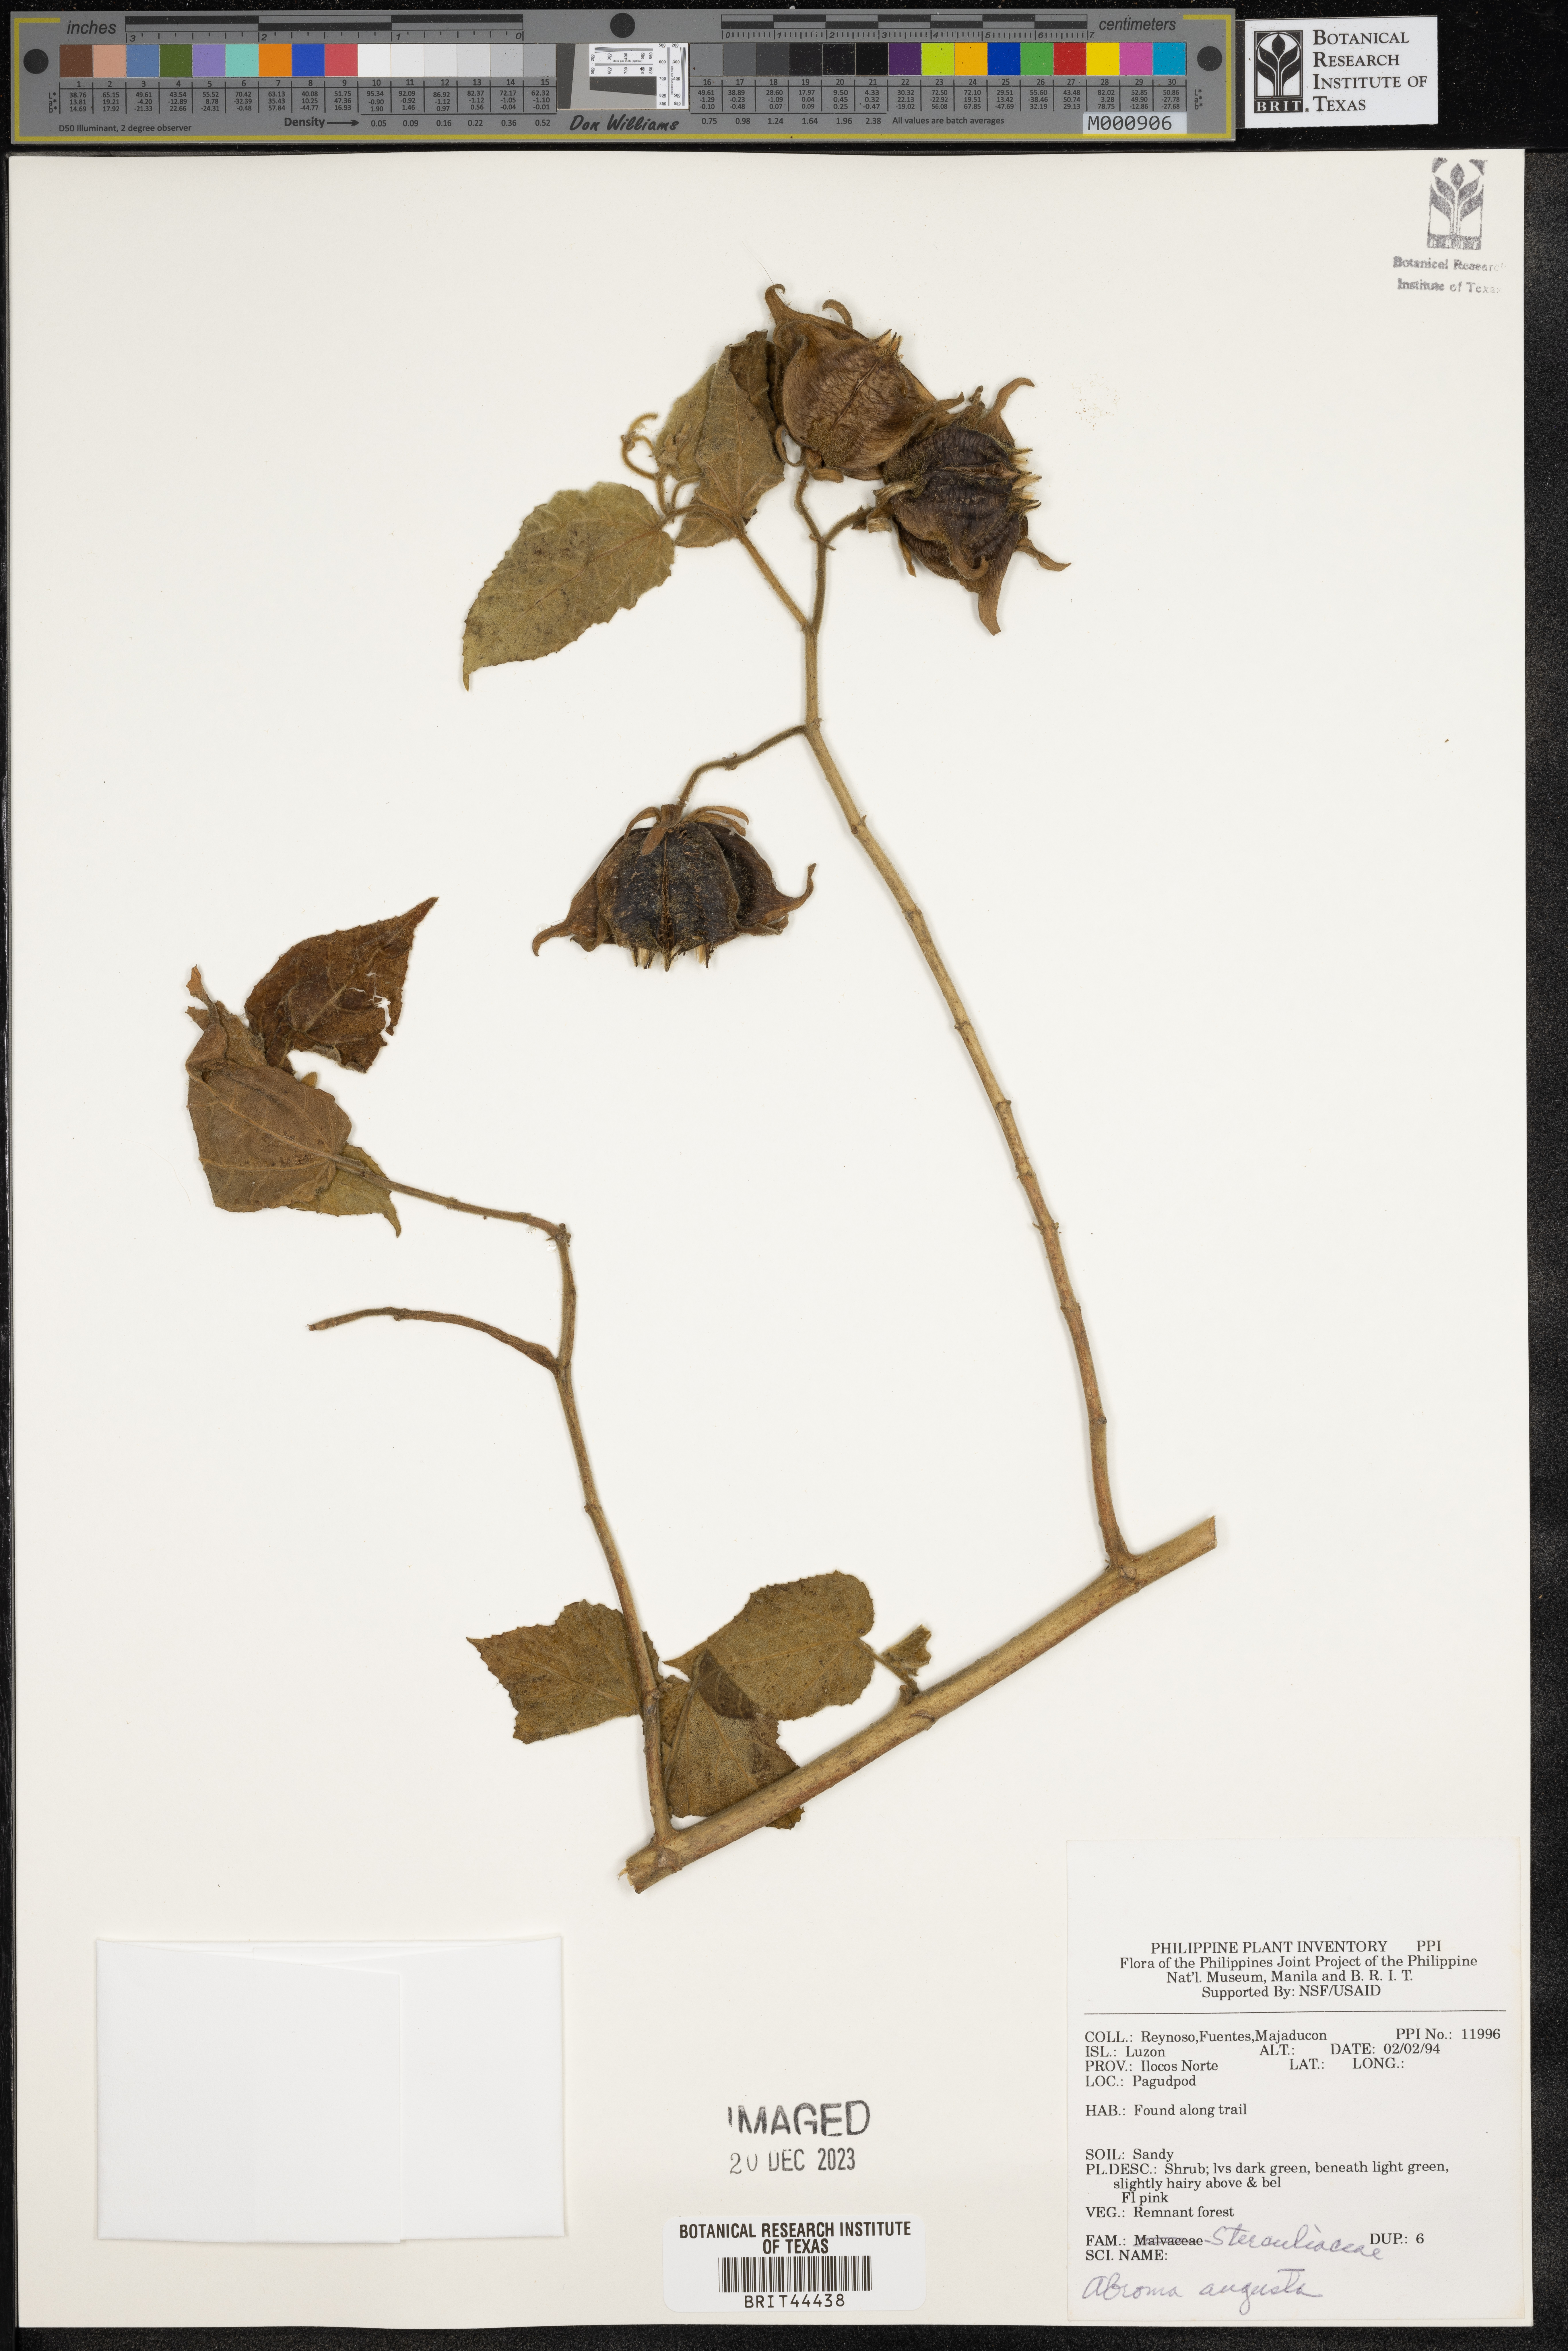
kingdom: Plantae
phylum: Tracheophyta
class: Magnoliopsida
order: Malvales
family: Malvaceae
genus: Abroma
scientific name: Abroma augustum
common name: Devil's-cotton
